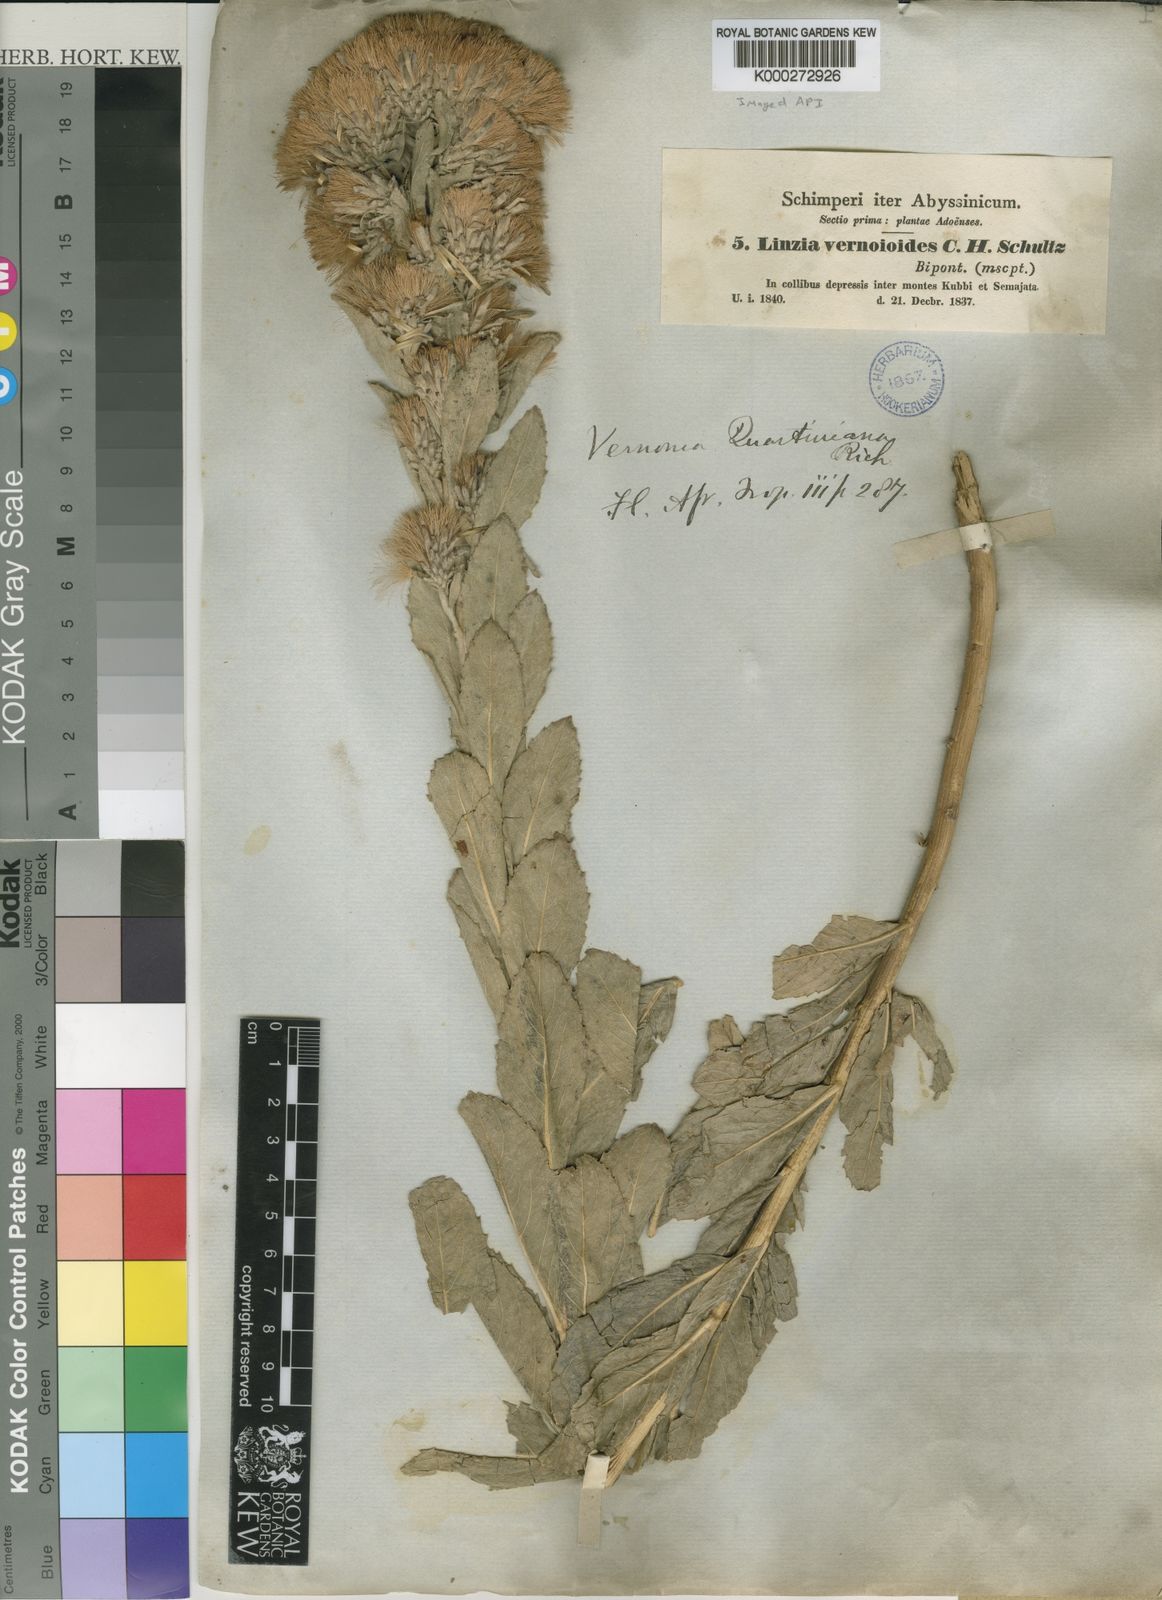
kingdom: Plantae
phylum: Tracheophyta
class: Magnoliopsida
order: Asterales
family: Asteraceae
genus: Vernonia
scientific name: Vernonia congolensis
